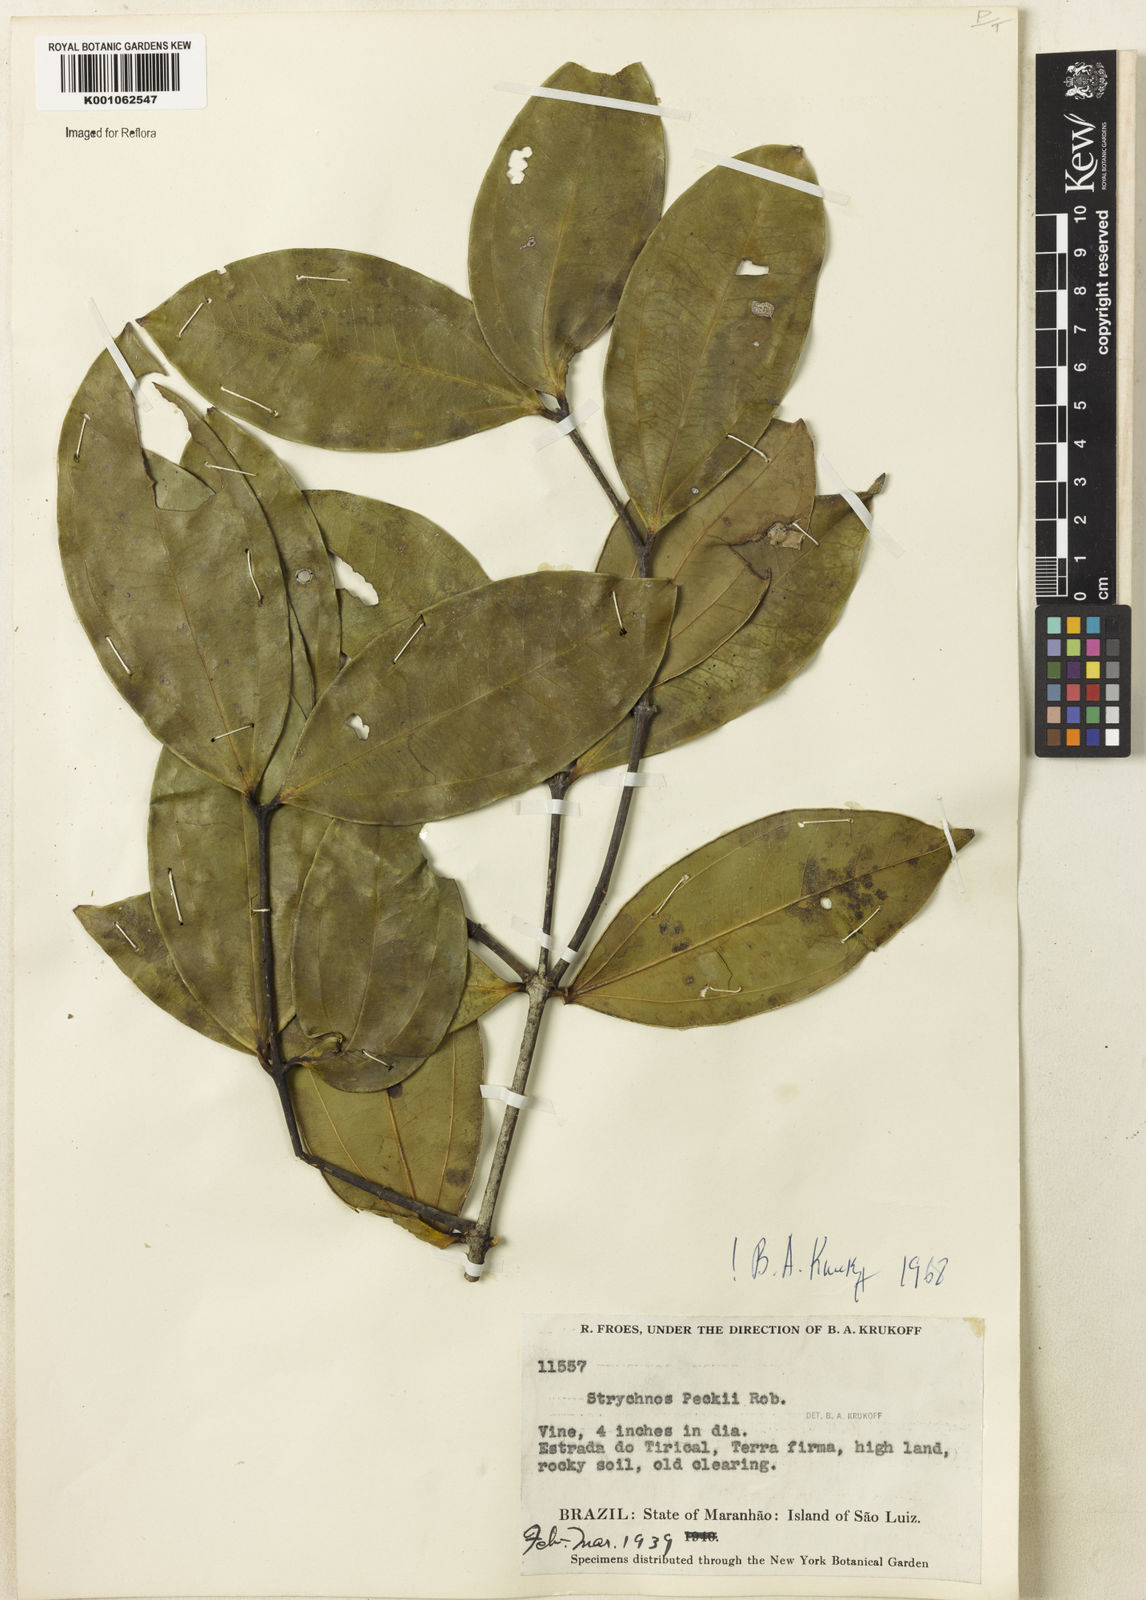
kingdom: Plantae
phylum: Tracheophyta
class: Magnoliopsida
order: Gentianales
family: Loganiaceae
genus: Strychnos
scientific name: Strychnos peckii
